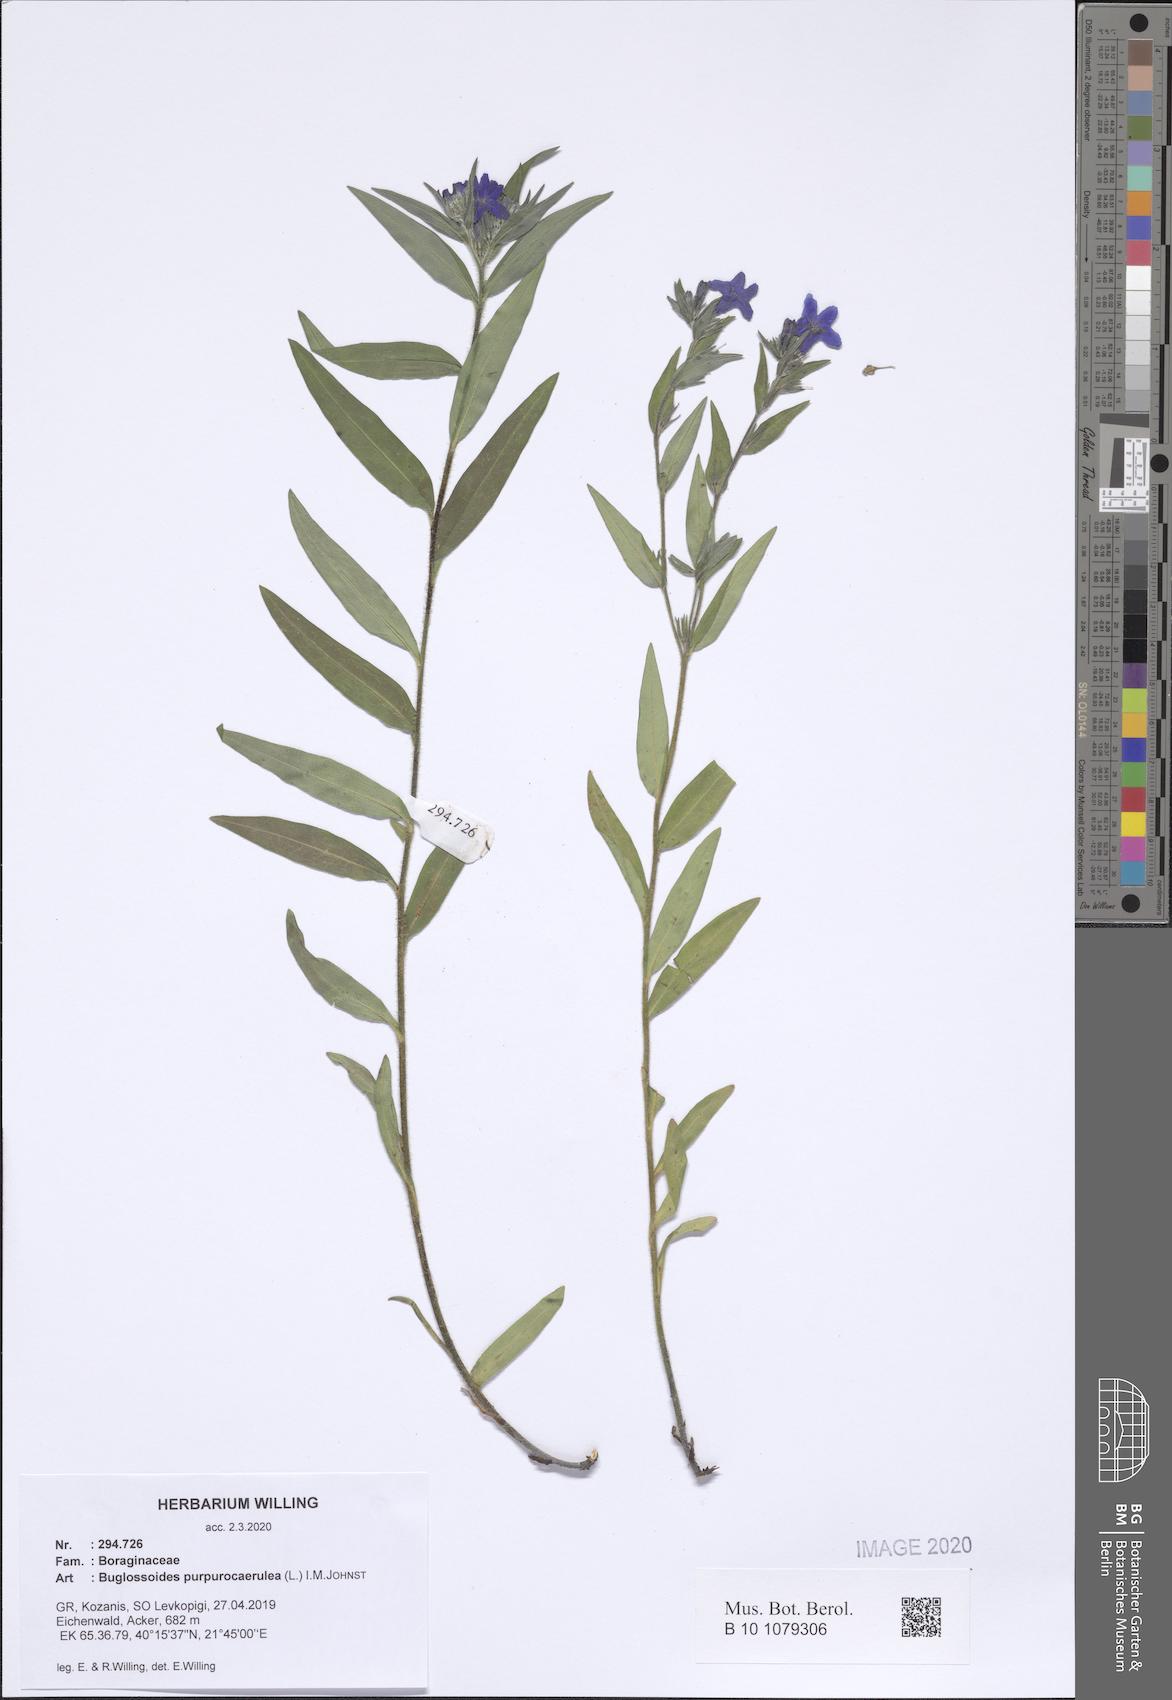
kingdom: Plantae
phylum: Tracheophyta
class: Magnoliopsida
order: Boraginales
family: Boraginaceae
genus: Aegonychon
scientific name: Aegonychon purpurocaeruleum
